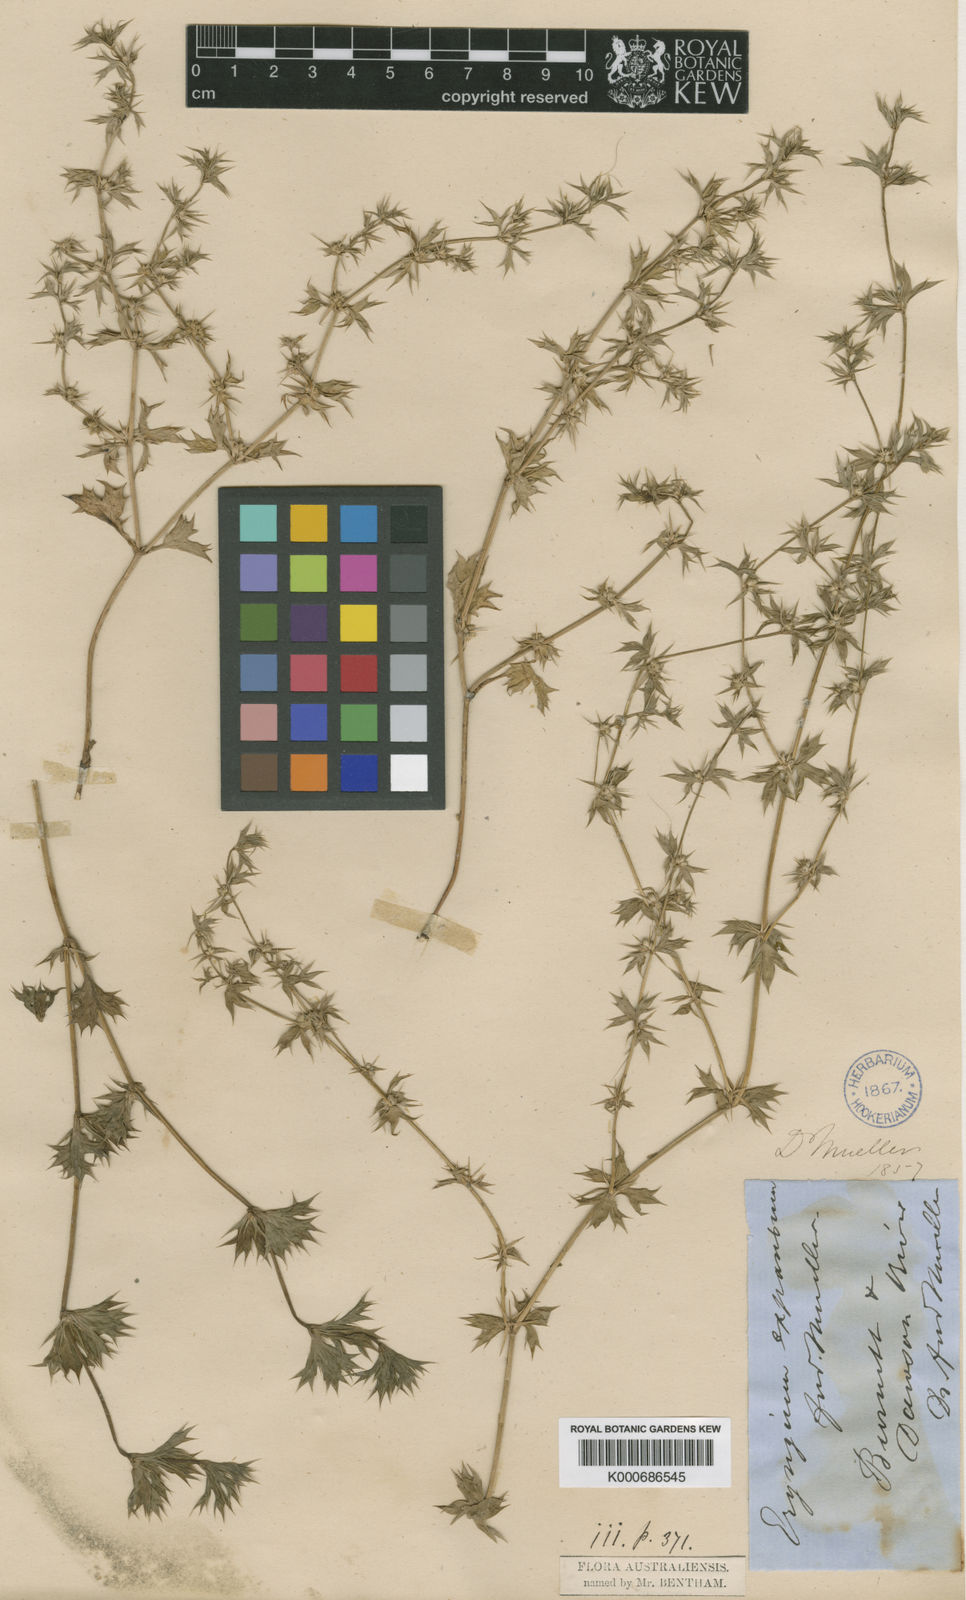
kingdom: Plantae
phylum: Tracheophyta
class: Magnoliopsida
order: Apiales
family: Apiaceae
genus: Eryngium
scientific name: Eryngium expansum
